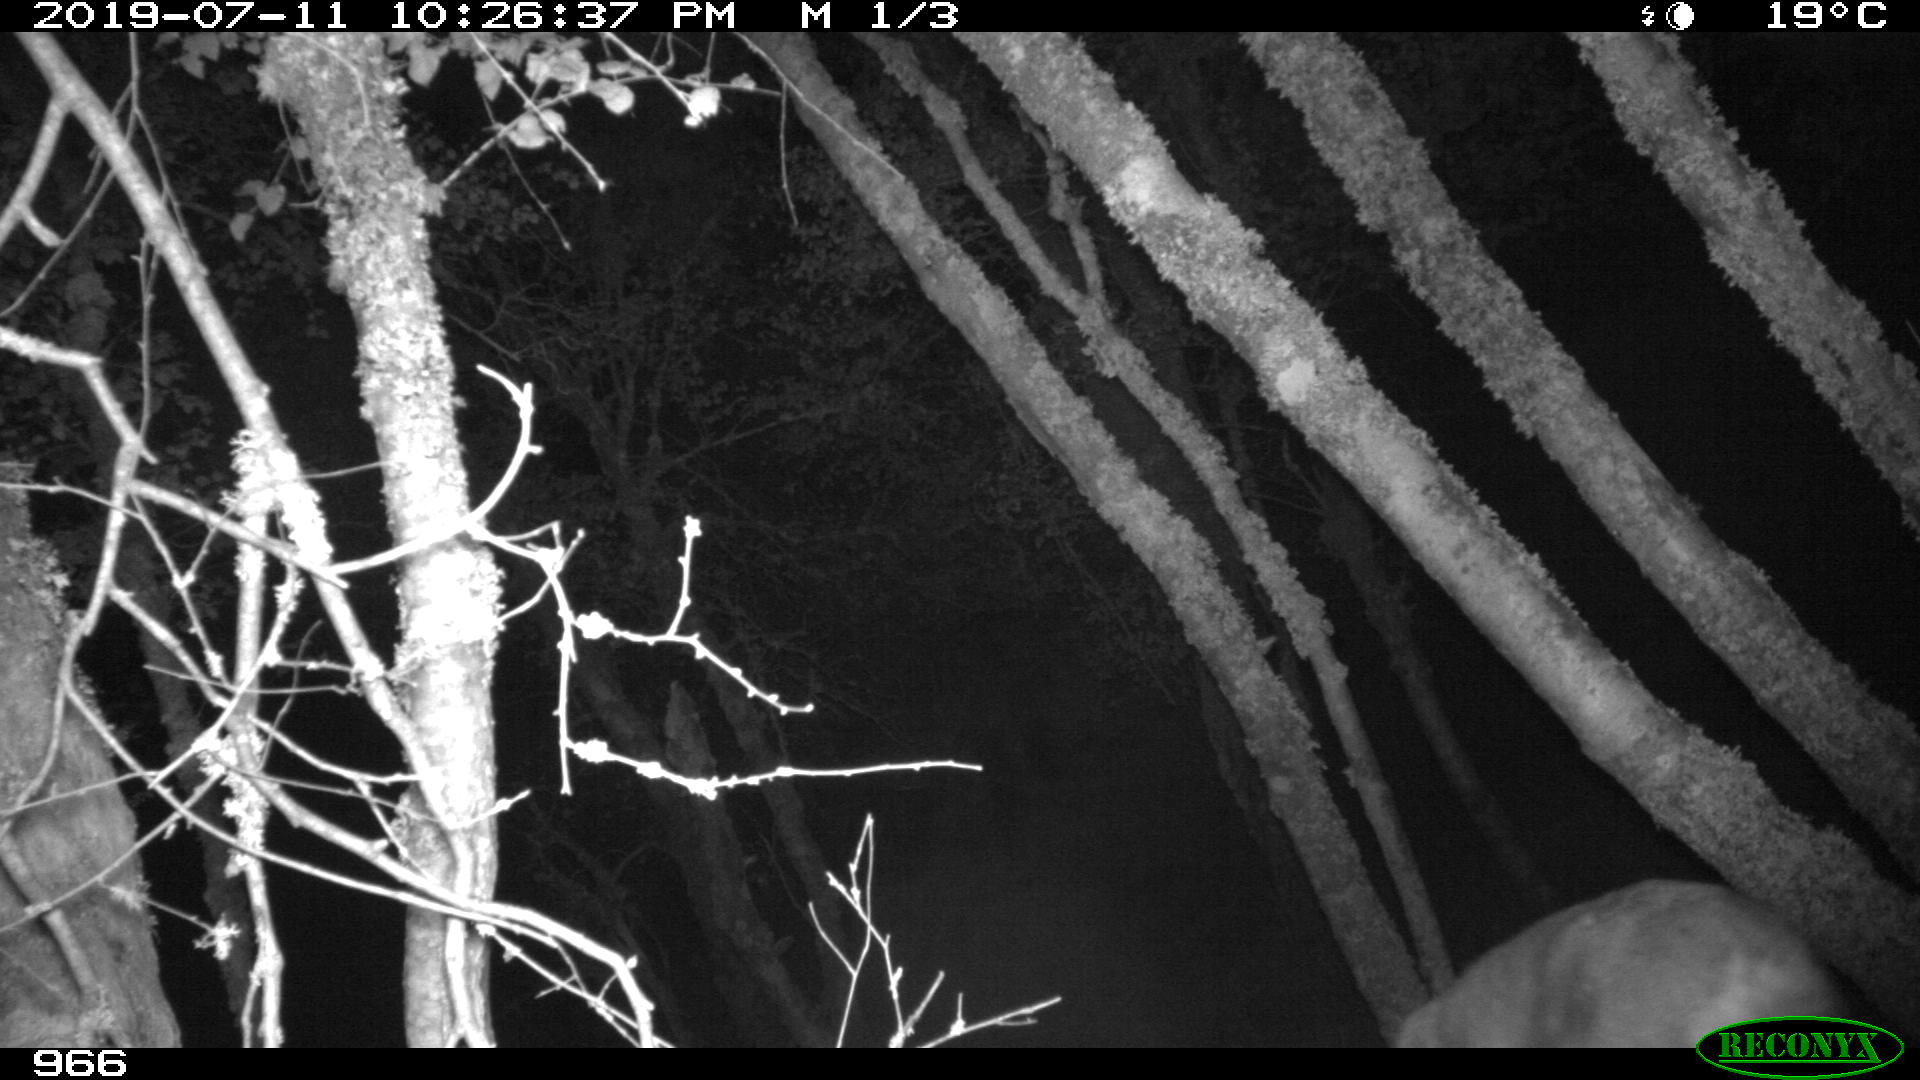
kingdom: Animalia
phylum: Chordata
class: Mammalia
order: Artiodactyla
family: Cervidae
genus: Capreolus
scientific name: Capreolus capreolus
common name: Western roe deer
